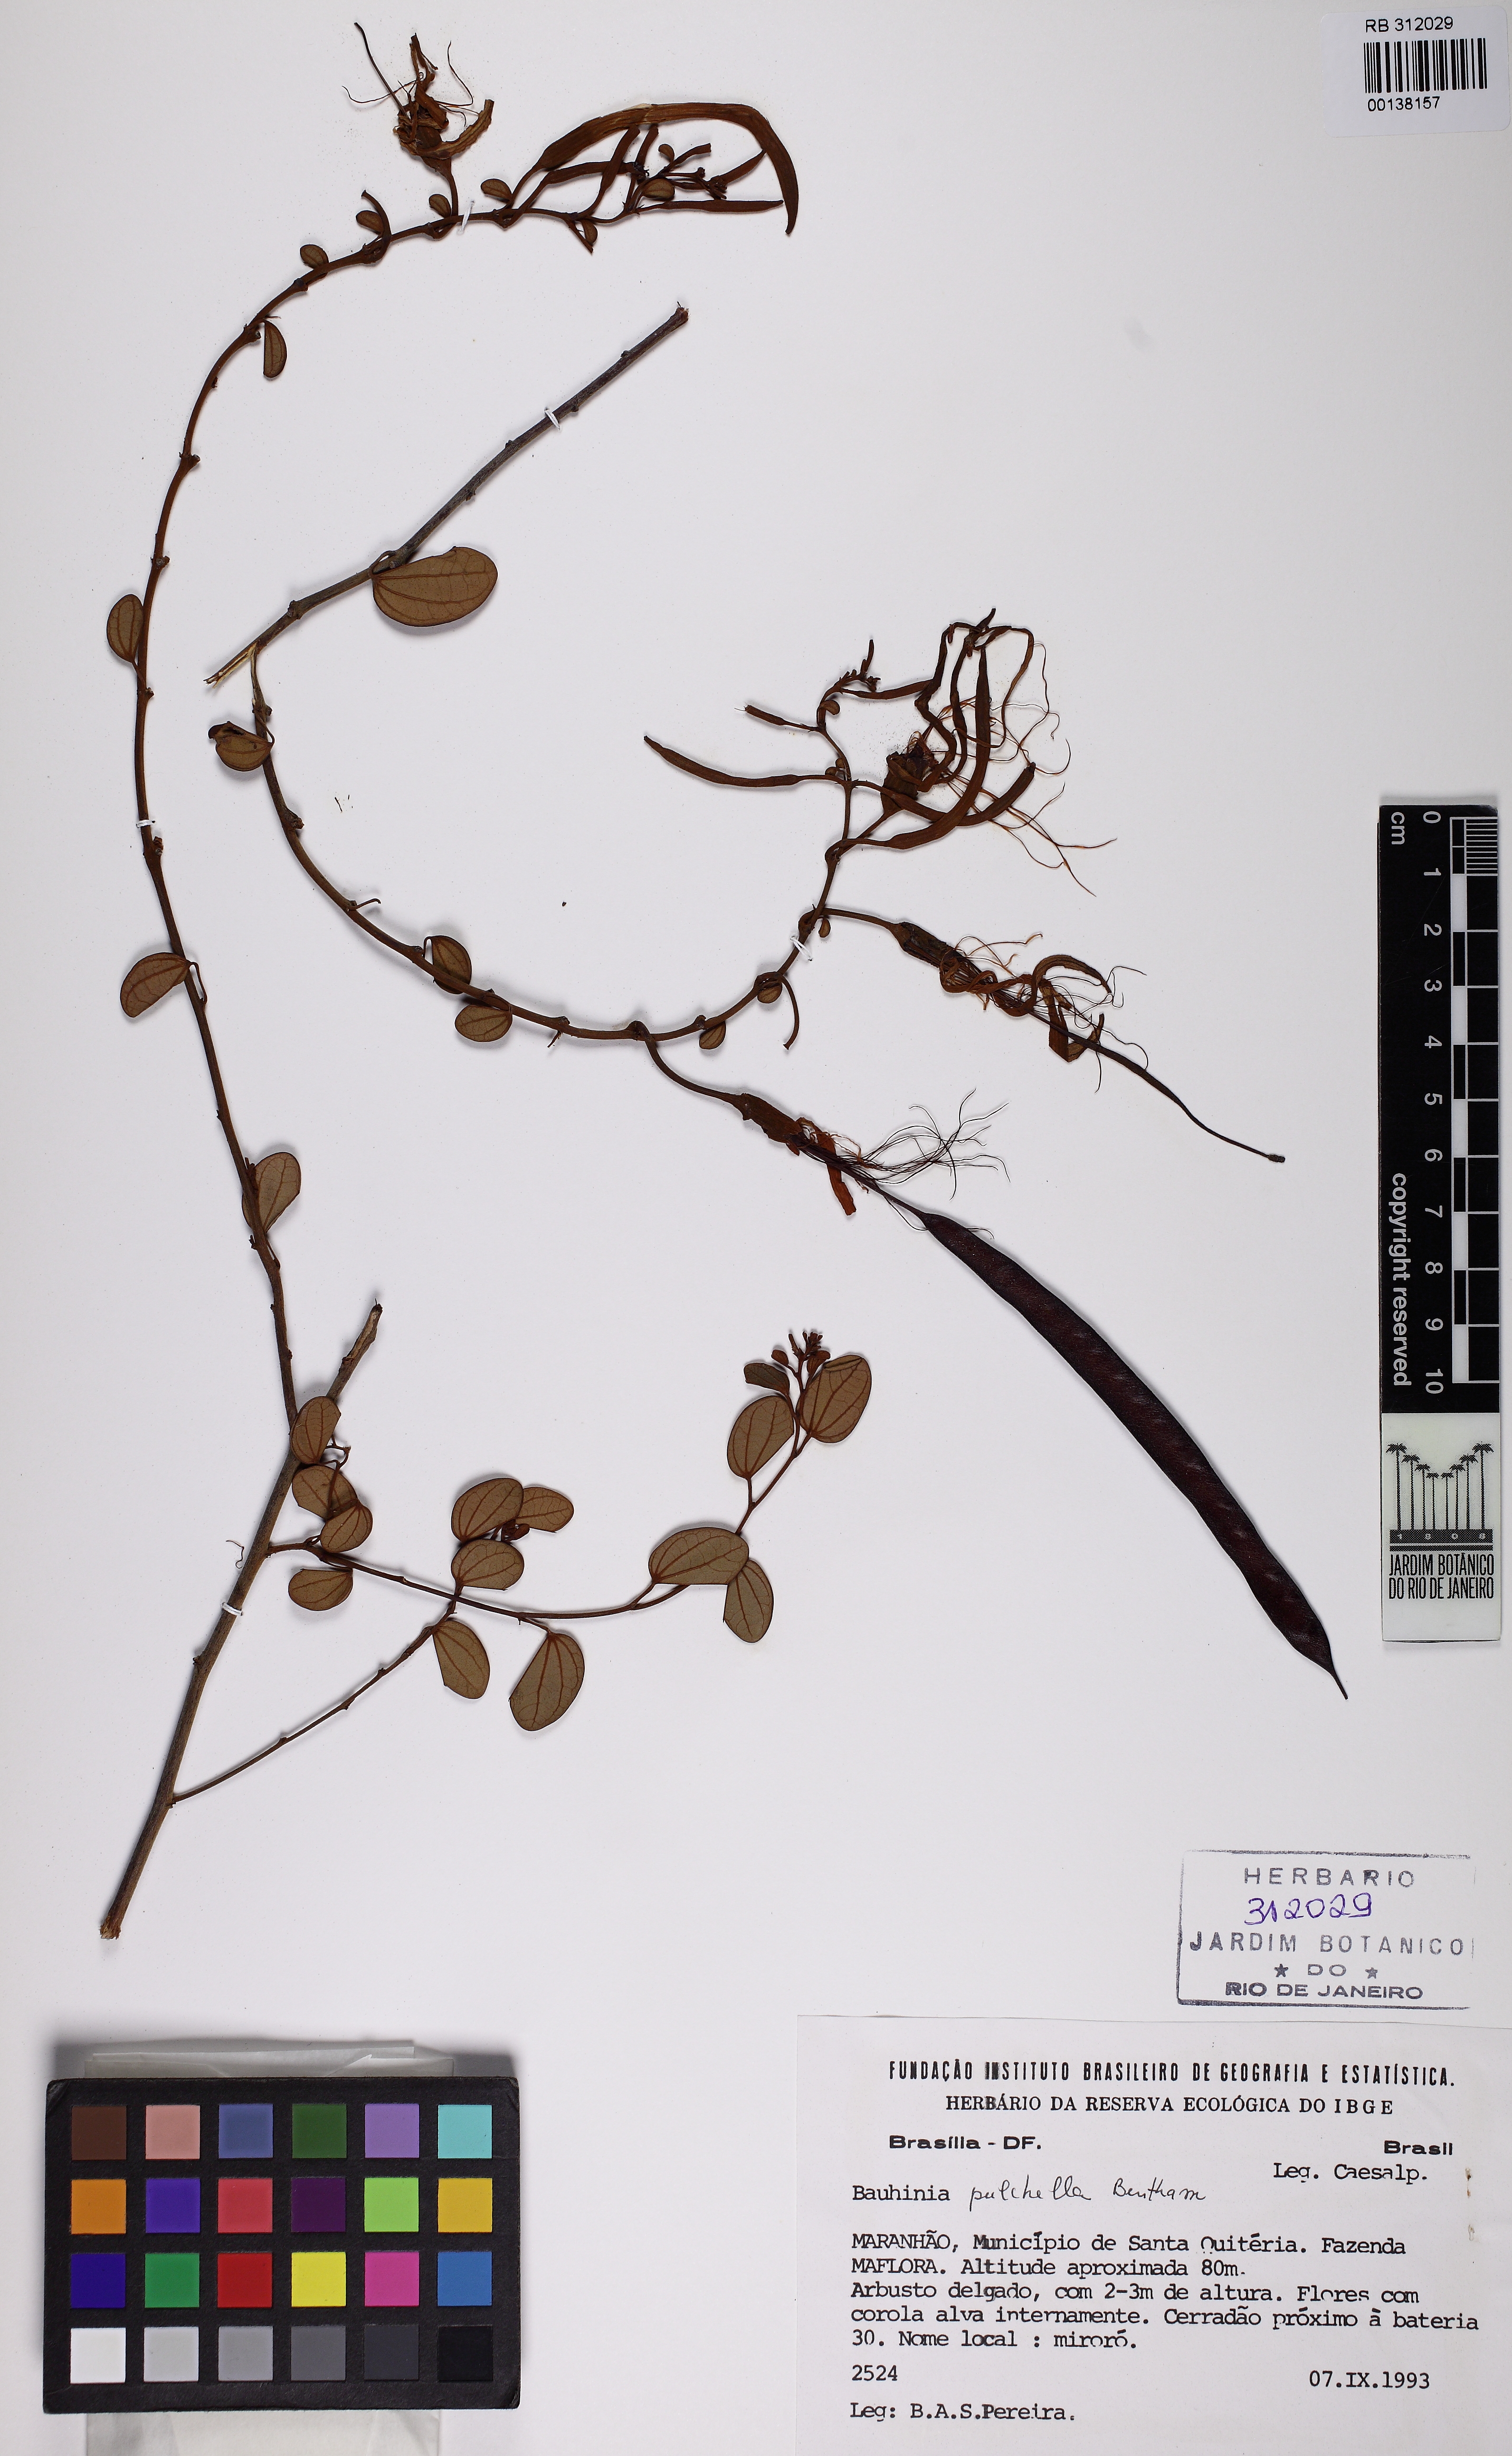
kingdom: Plantae
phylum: Tracheophyta
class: Magnoliopsida
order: Fabales
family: Fabaceae
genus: Bauhinia
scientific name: Bauhinia pulchella
